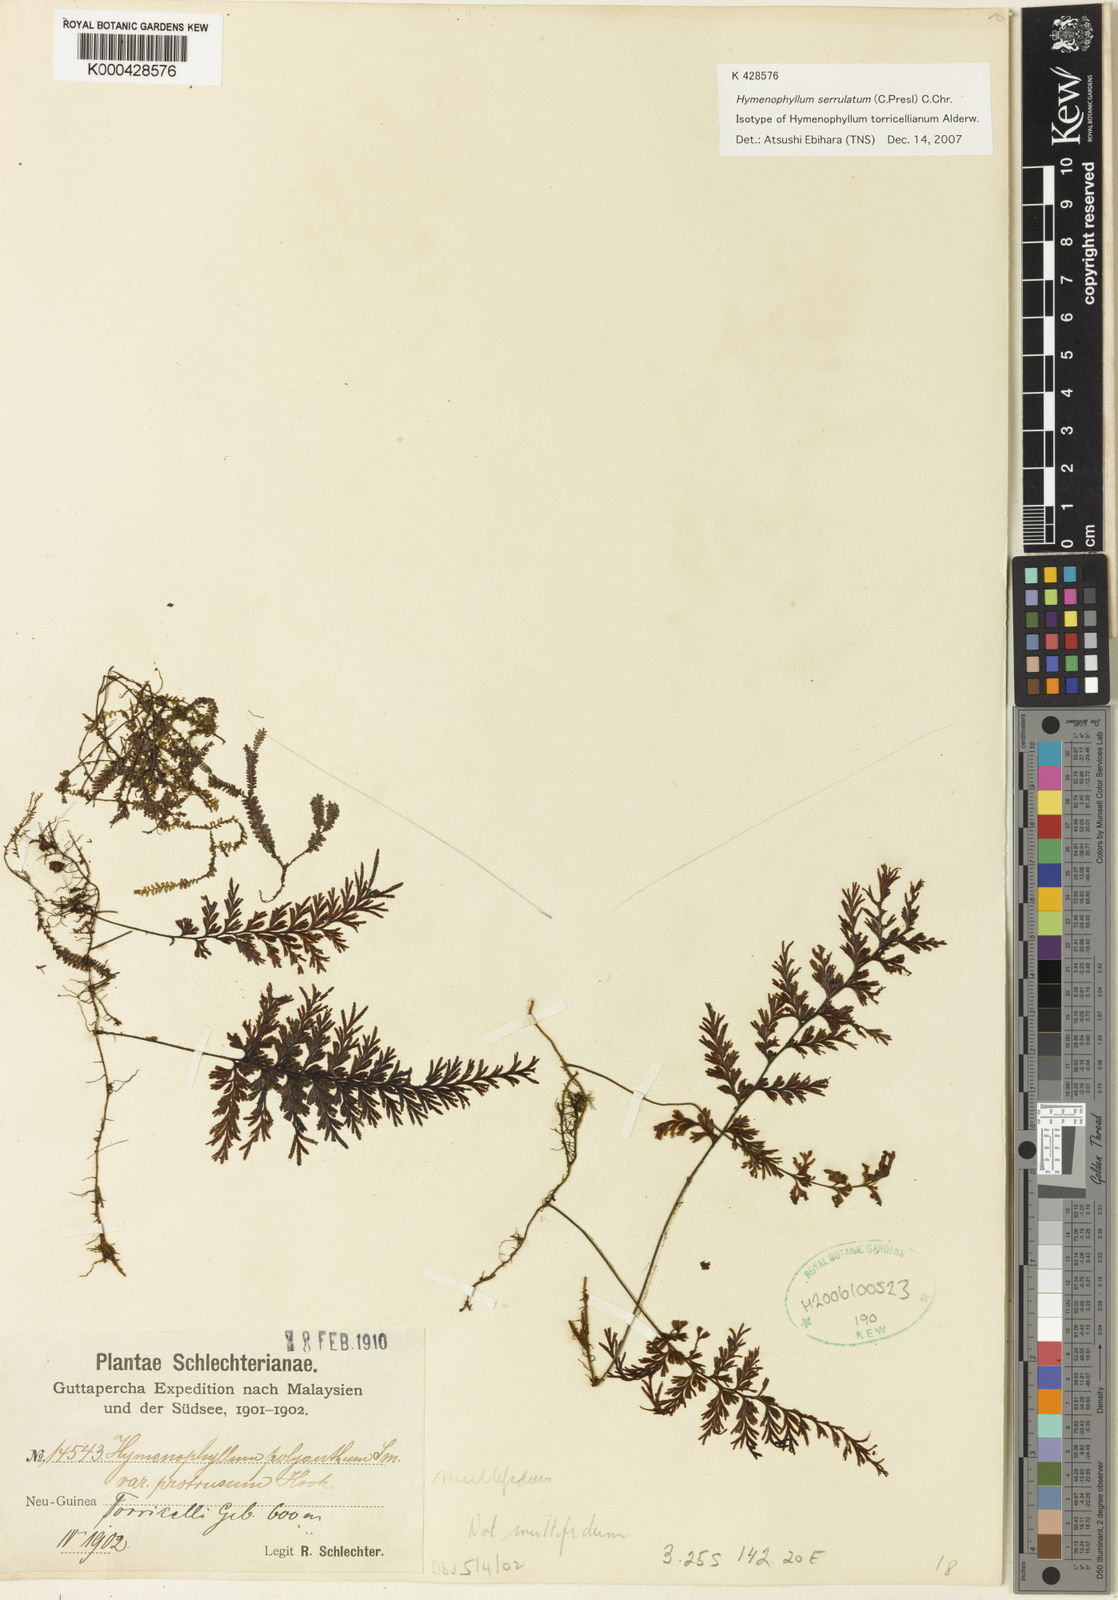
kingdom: Plantae
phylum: Tracheophyta
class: Polypodiopsida
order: Hymenophyllales
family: Hymenophyllaceae
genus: Hymenophyllum
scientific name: Hymenophyllum serrulatum
